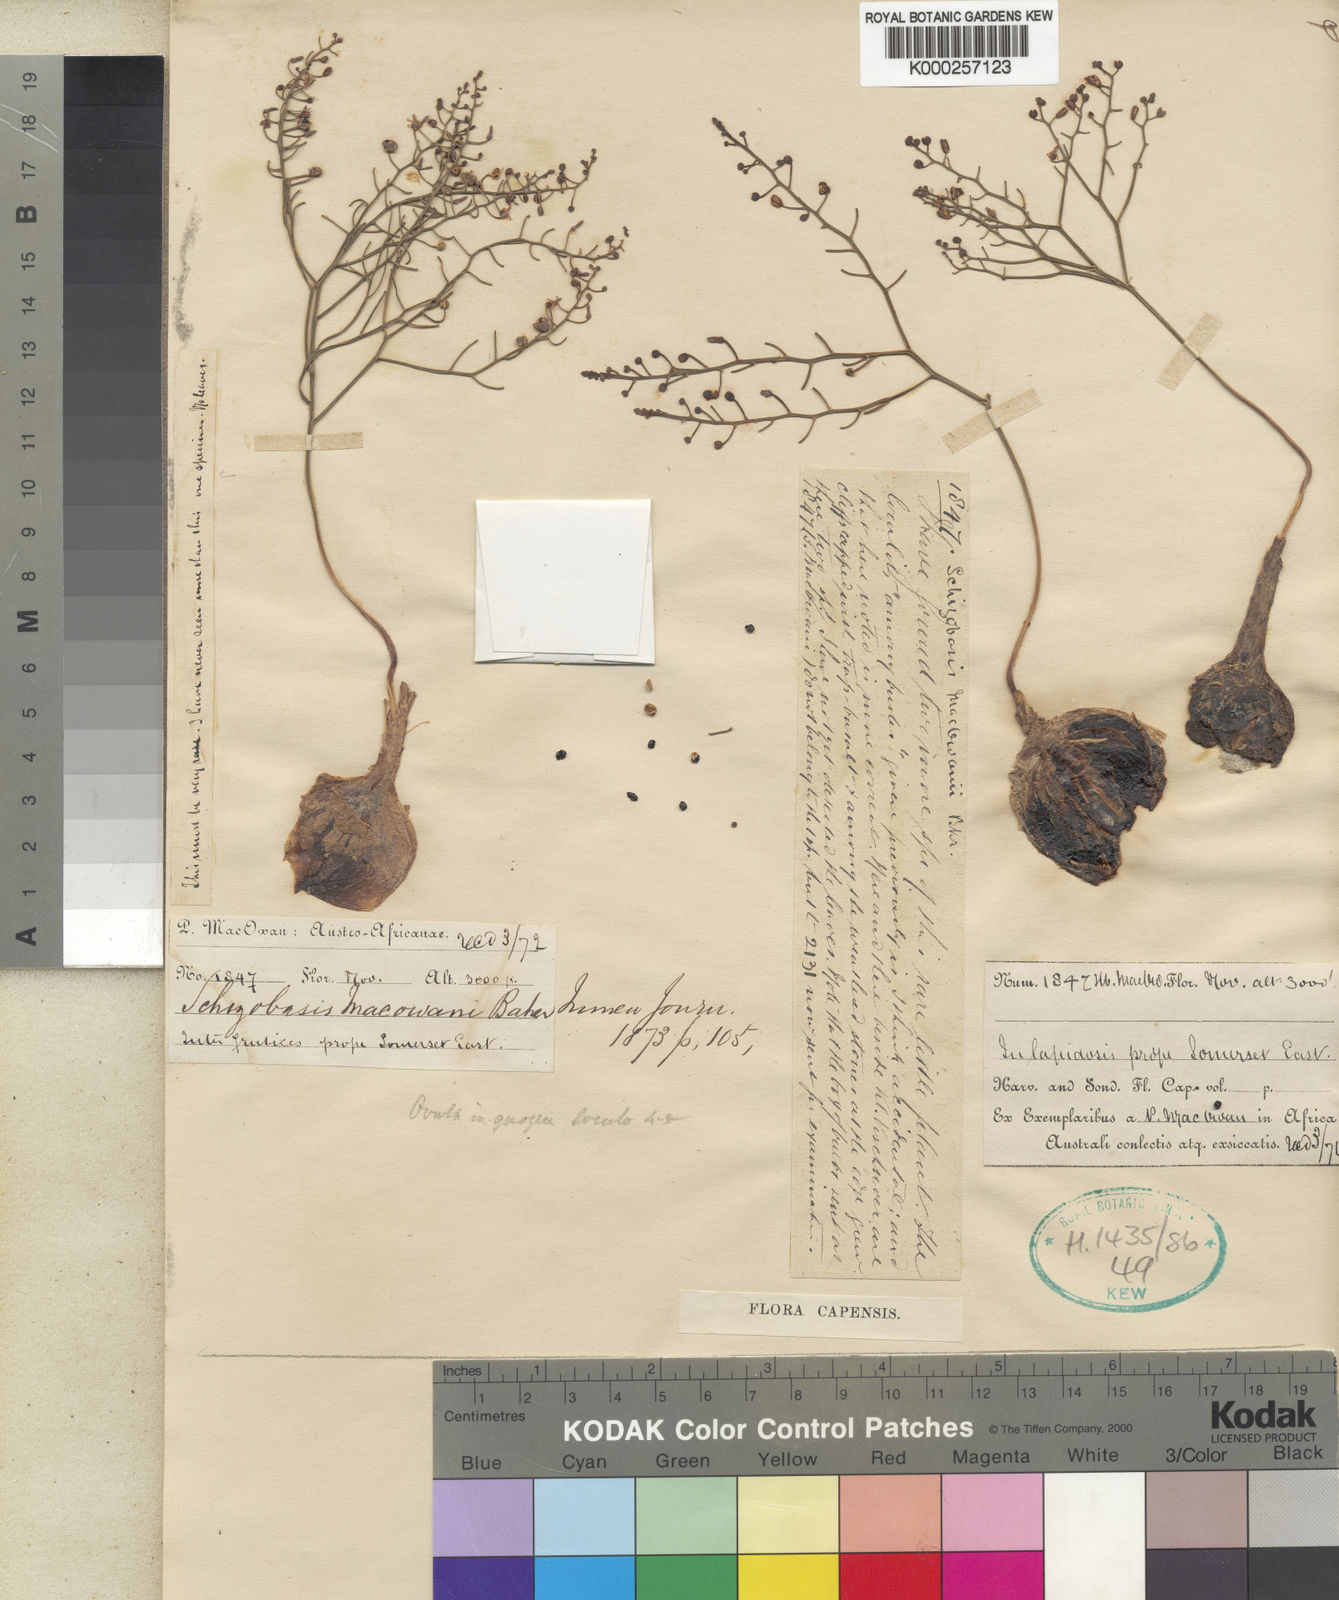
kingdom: Plantae
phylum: Tracheophyta
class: Liliopsida
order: Asparagales
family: Asparagaceae
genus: Drimia
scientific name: Drimia intricata
